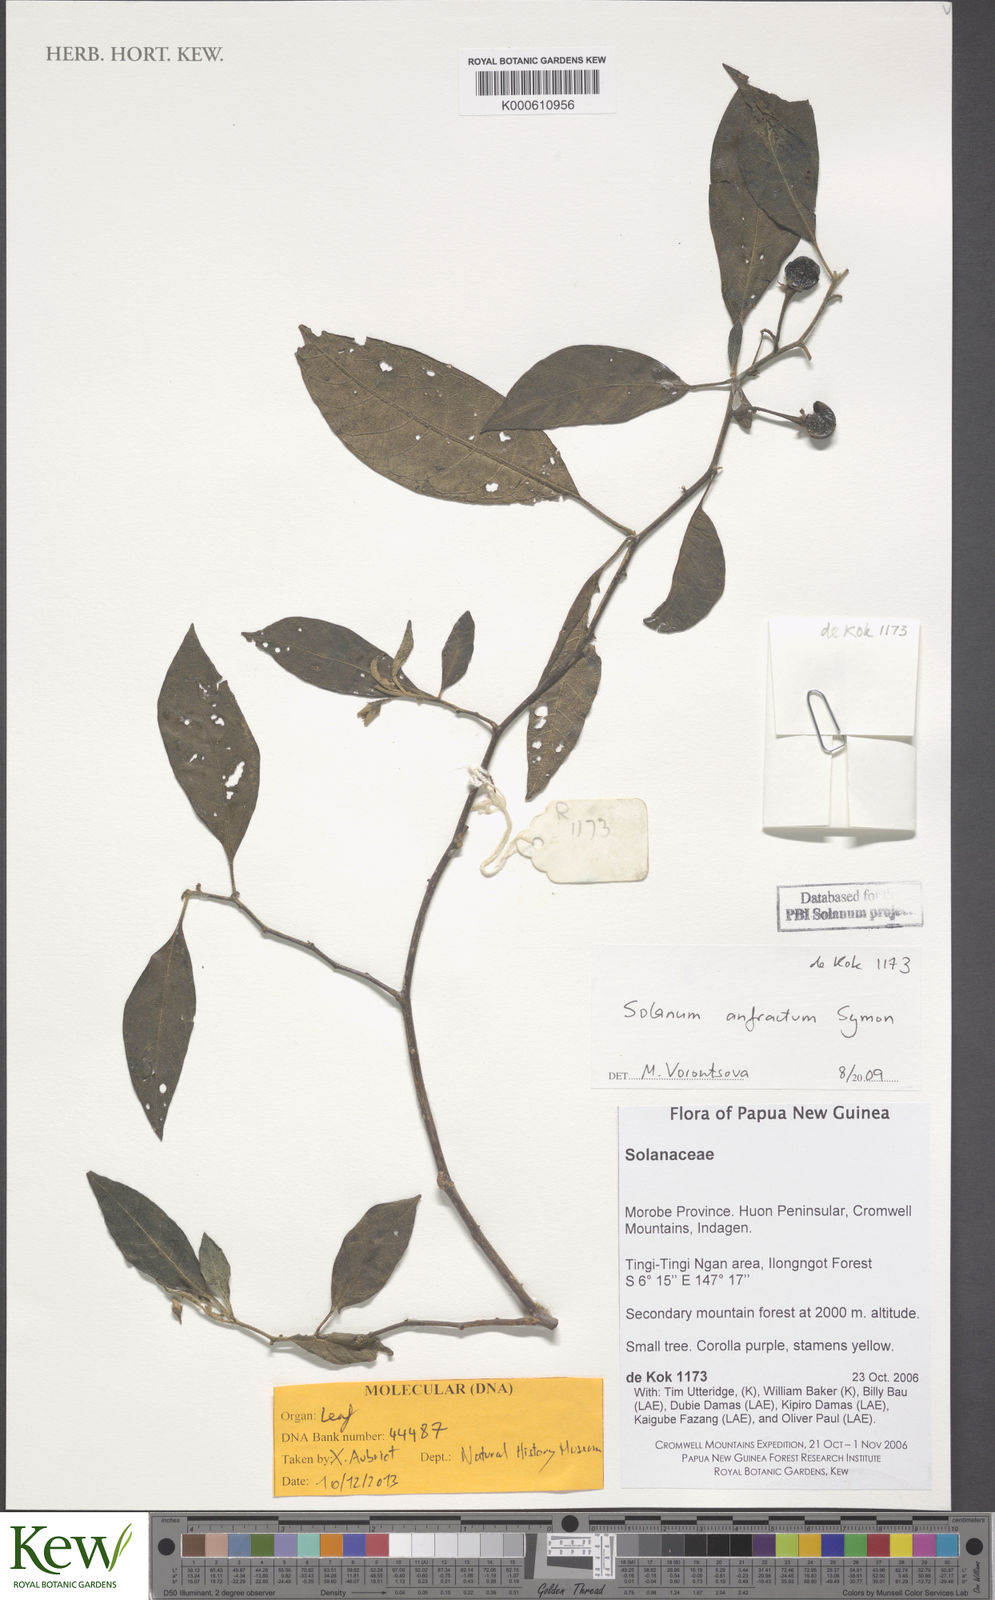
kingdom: Plantae
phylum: Tracheophyta
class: Magnoliopsida
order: Solanales
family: Solanaceae
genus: Solanum
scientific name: Solanum anfractum
